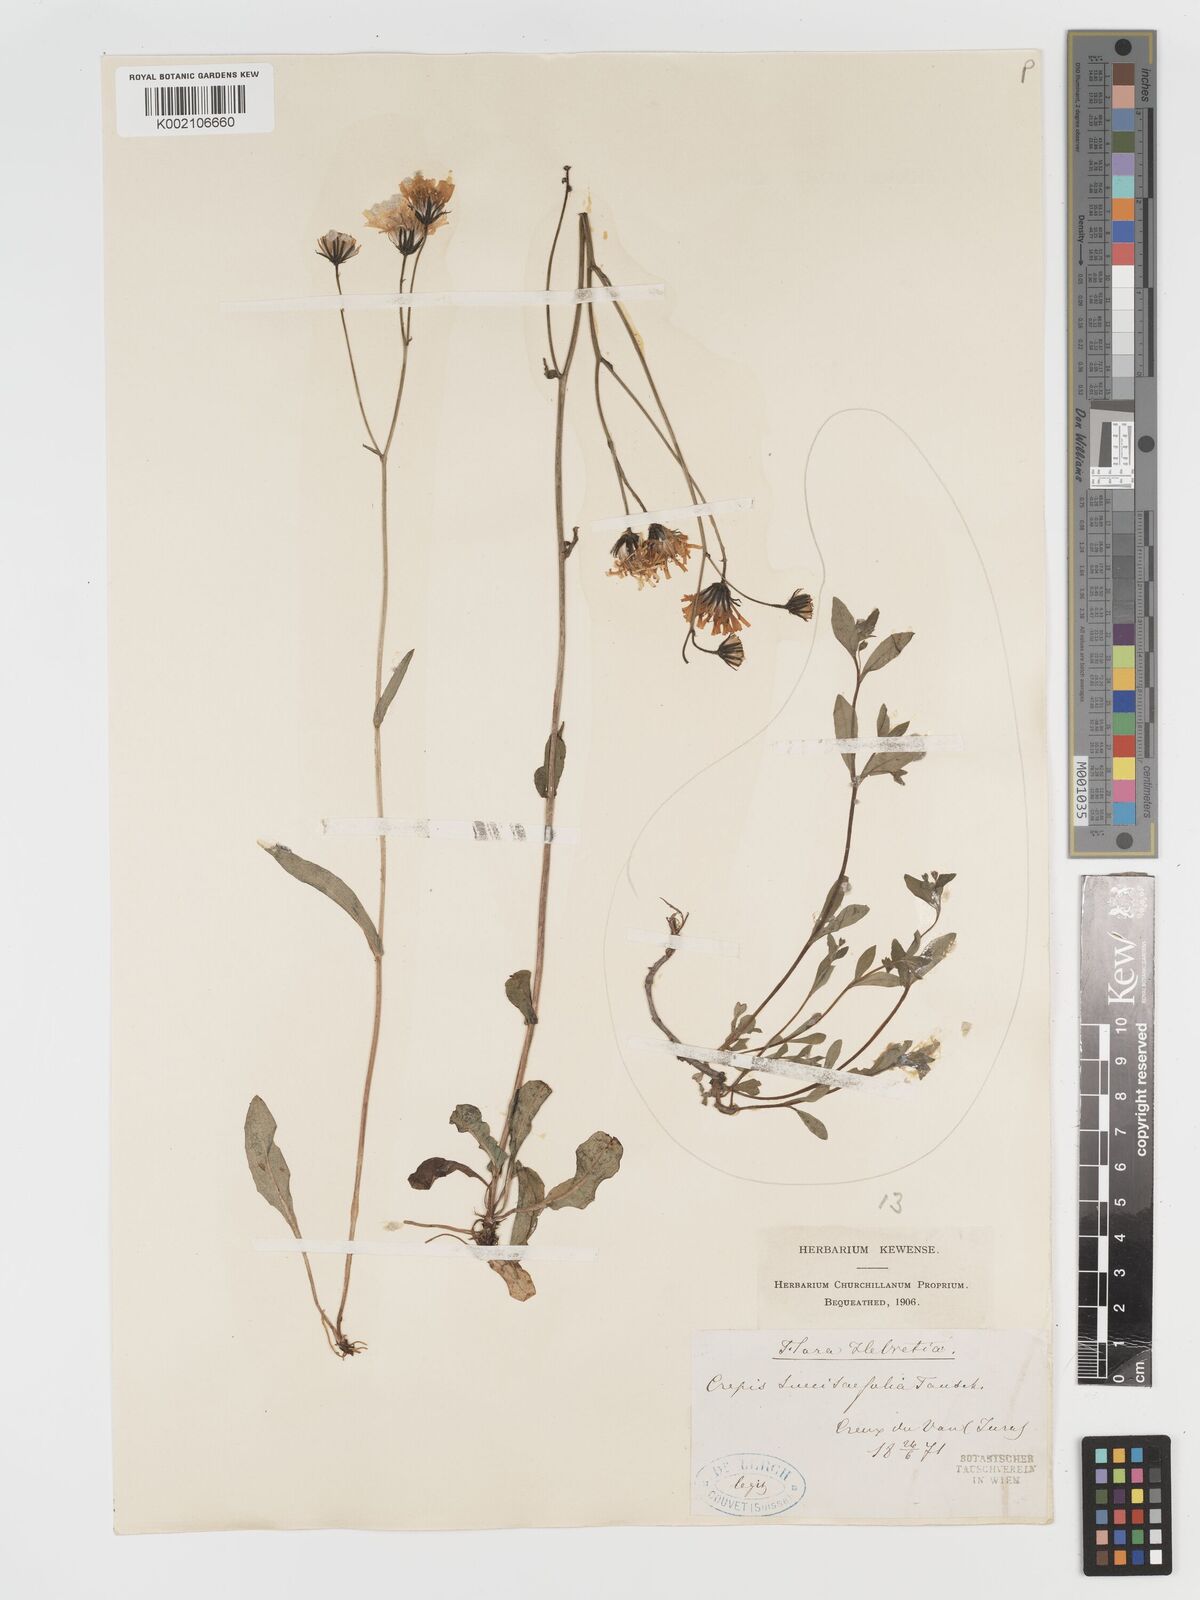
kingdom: Plantae
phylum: Tracheophyta
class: Magnoliopsida
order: Asterales
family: Asteraceae
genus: Crepis
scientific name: Crepis mollis
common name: Northern hawk's-beard
